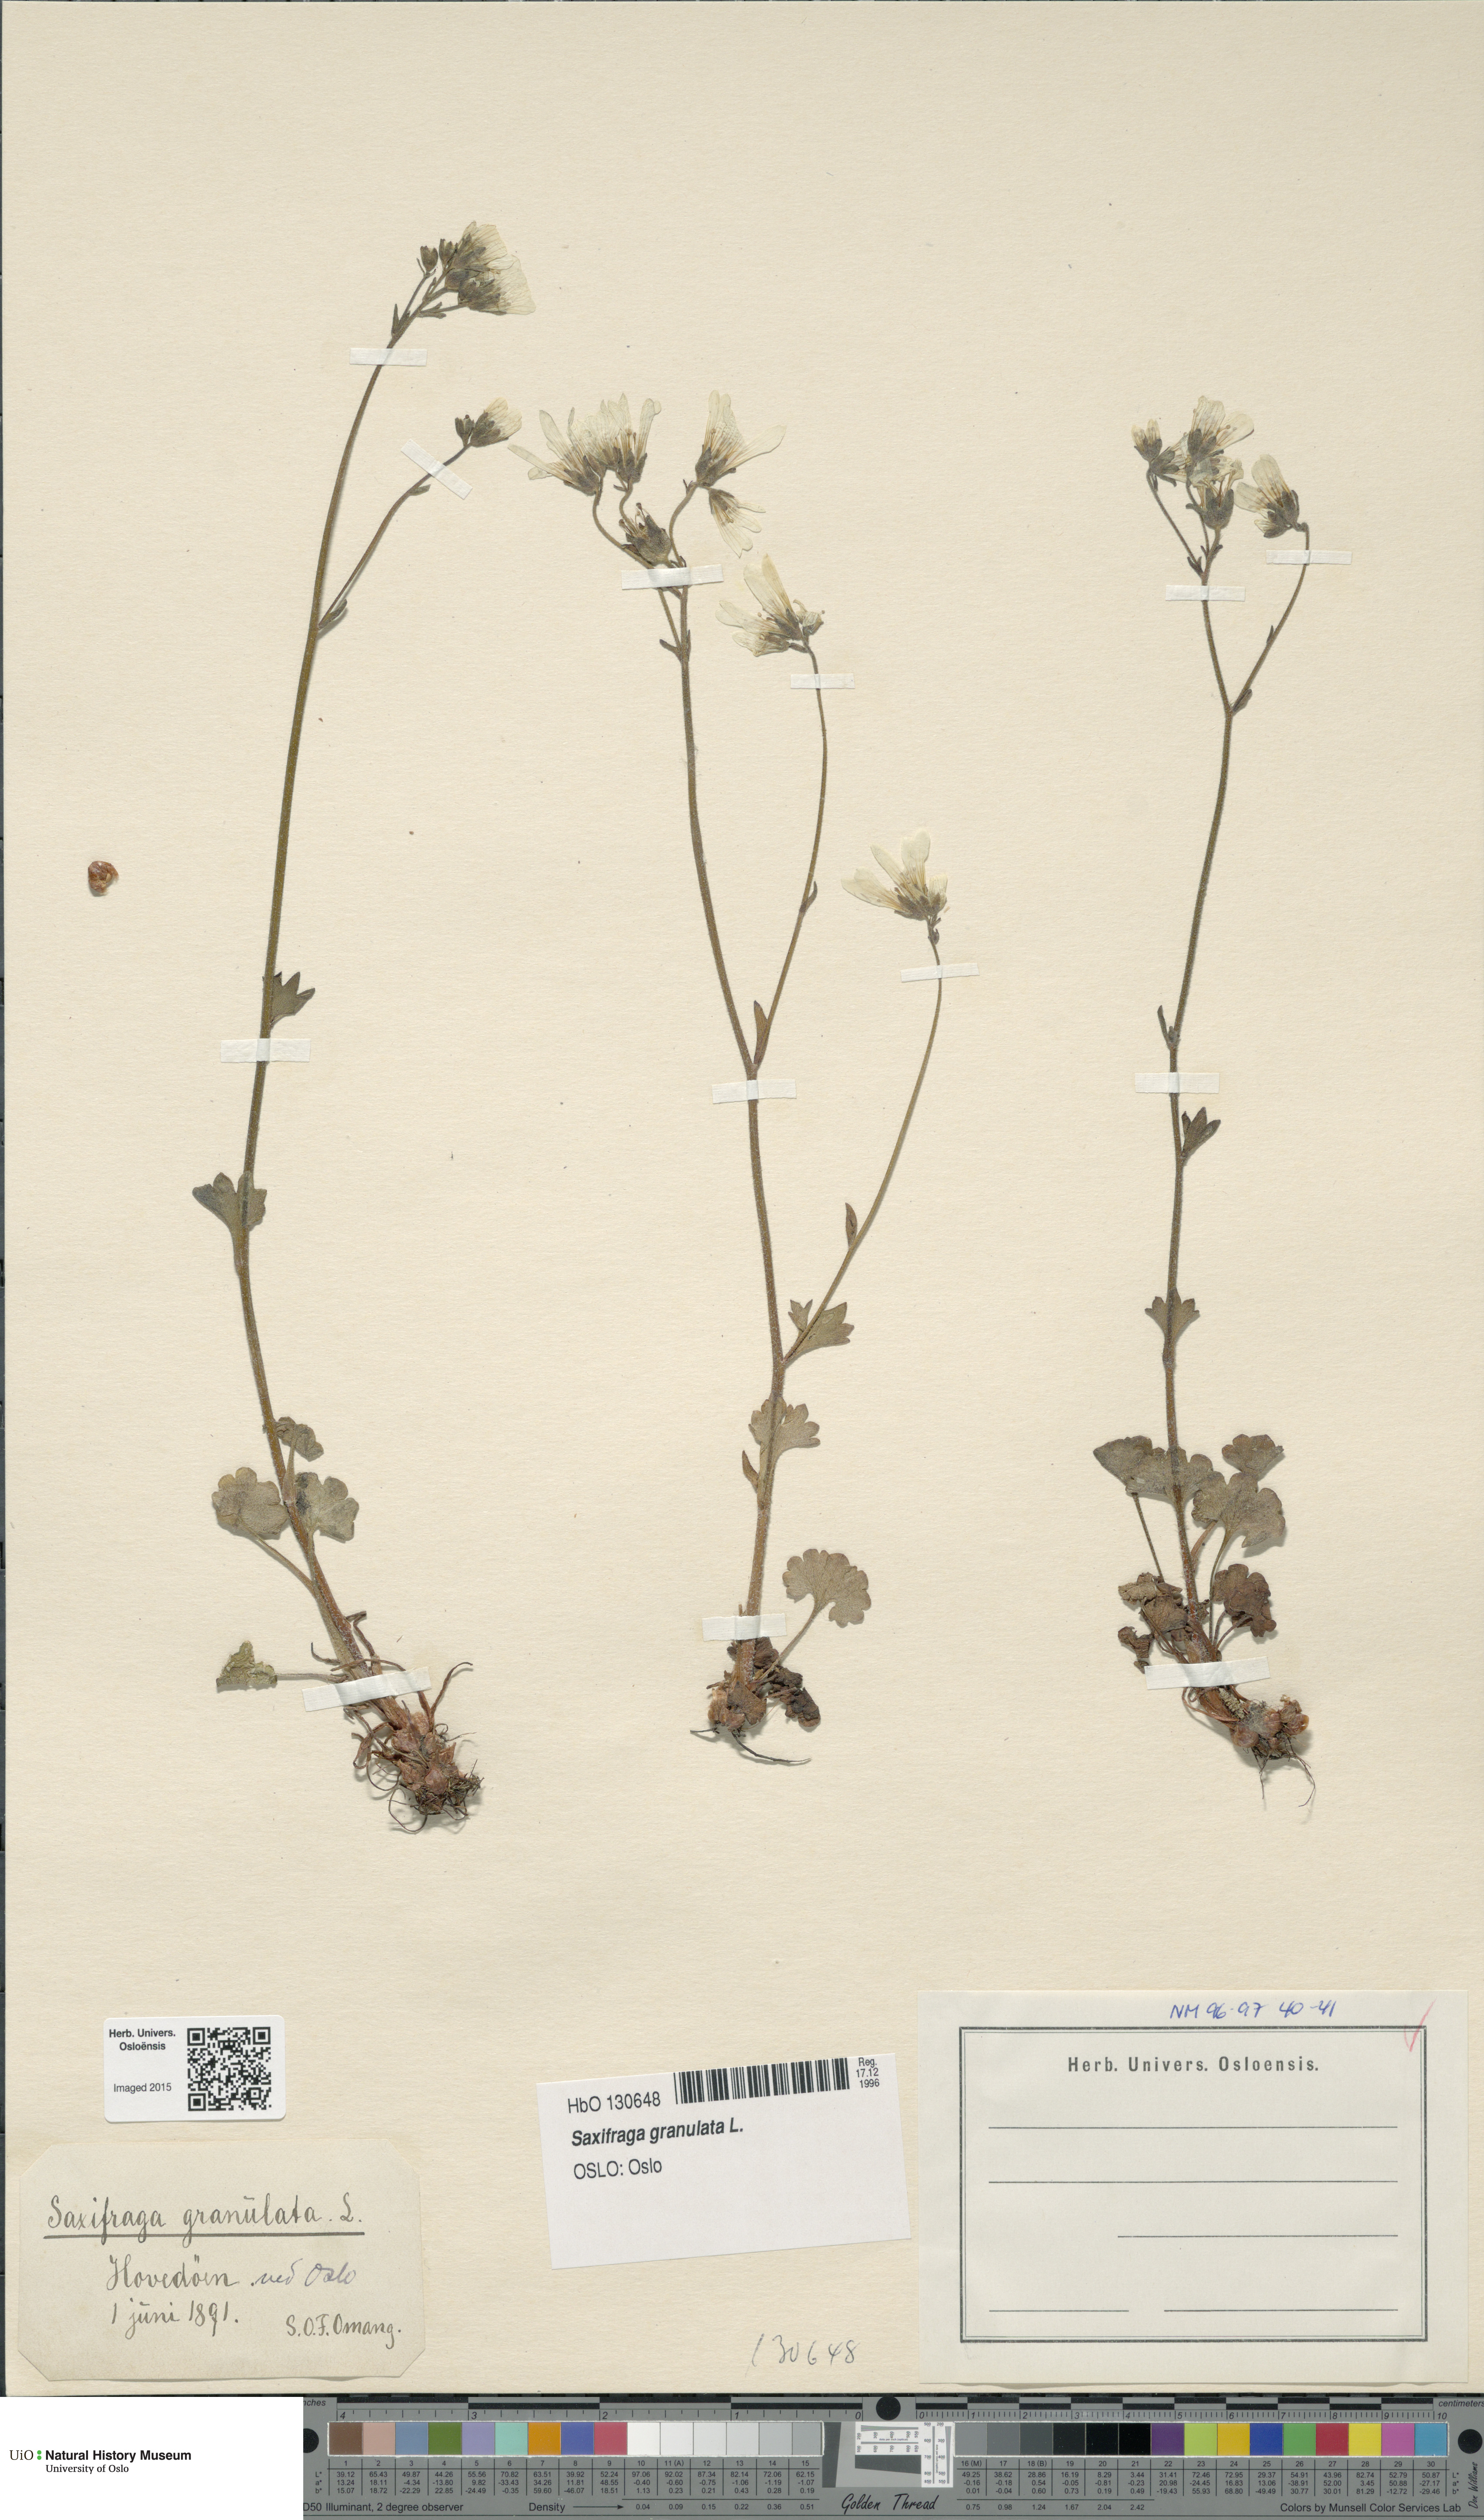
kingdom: Plantae
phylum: Tracheophyta
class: Magnoliopsida
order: Saxifragales
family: Saxifragaceae
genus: Saxifraga
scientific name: Saxifraga granulata
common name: Meadow saxifrage
